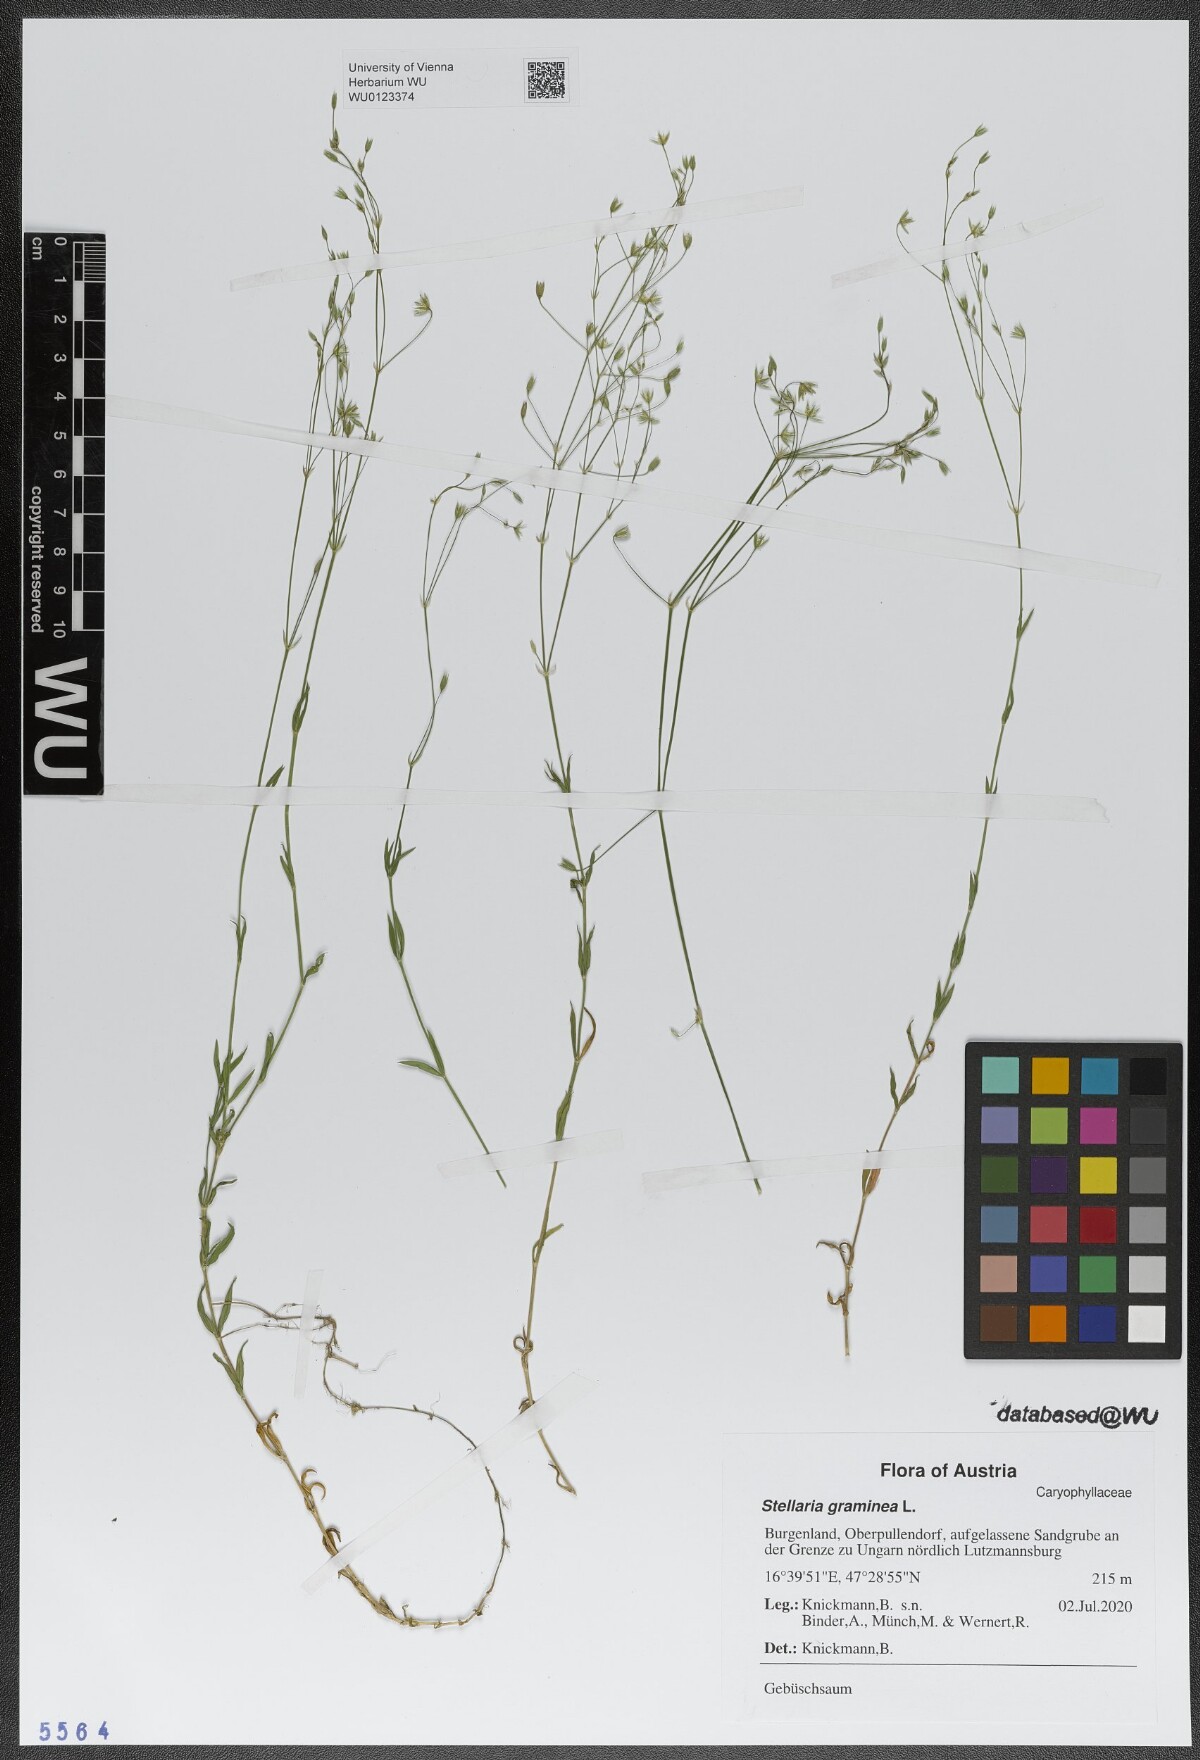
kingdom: Plantae
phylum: Tracheophyta
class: Magnoliopsida
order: Caryophyllales
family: Caryophyllaceae
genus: Stellaria
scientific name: Stellaria graminea
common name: Grass-like starwort
